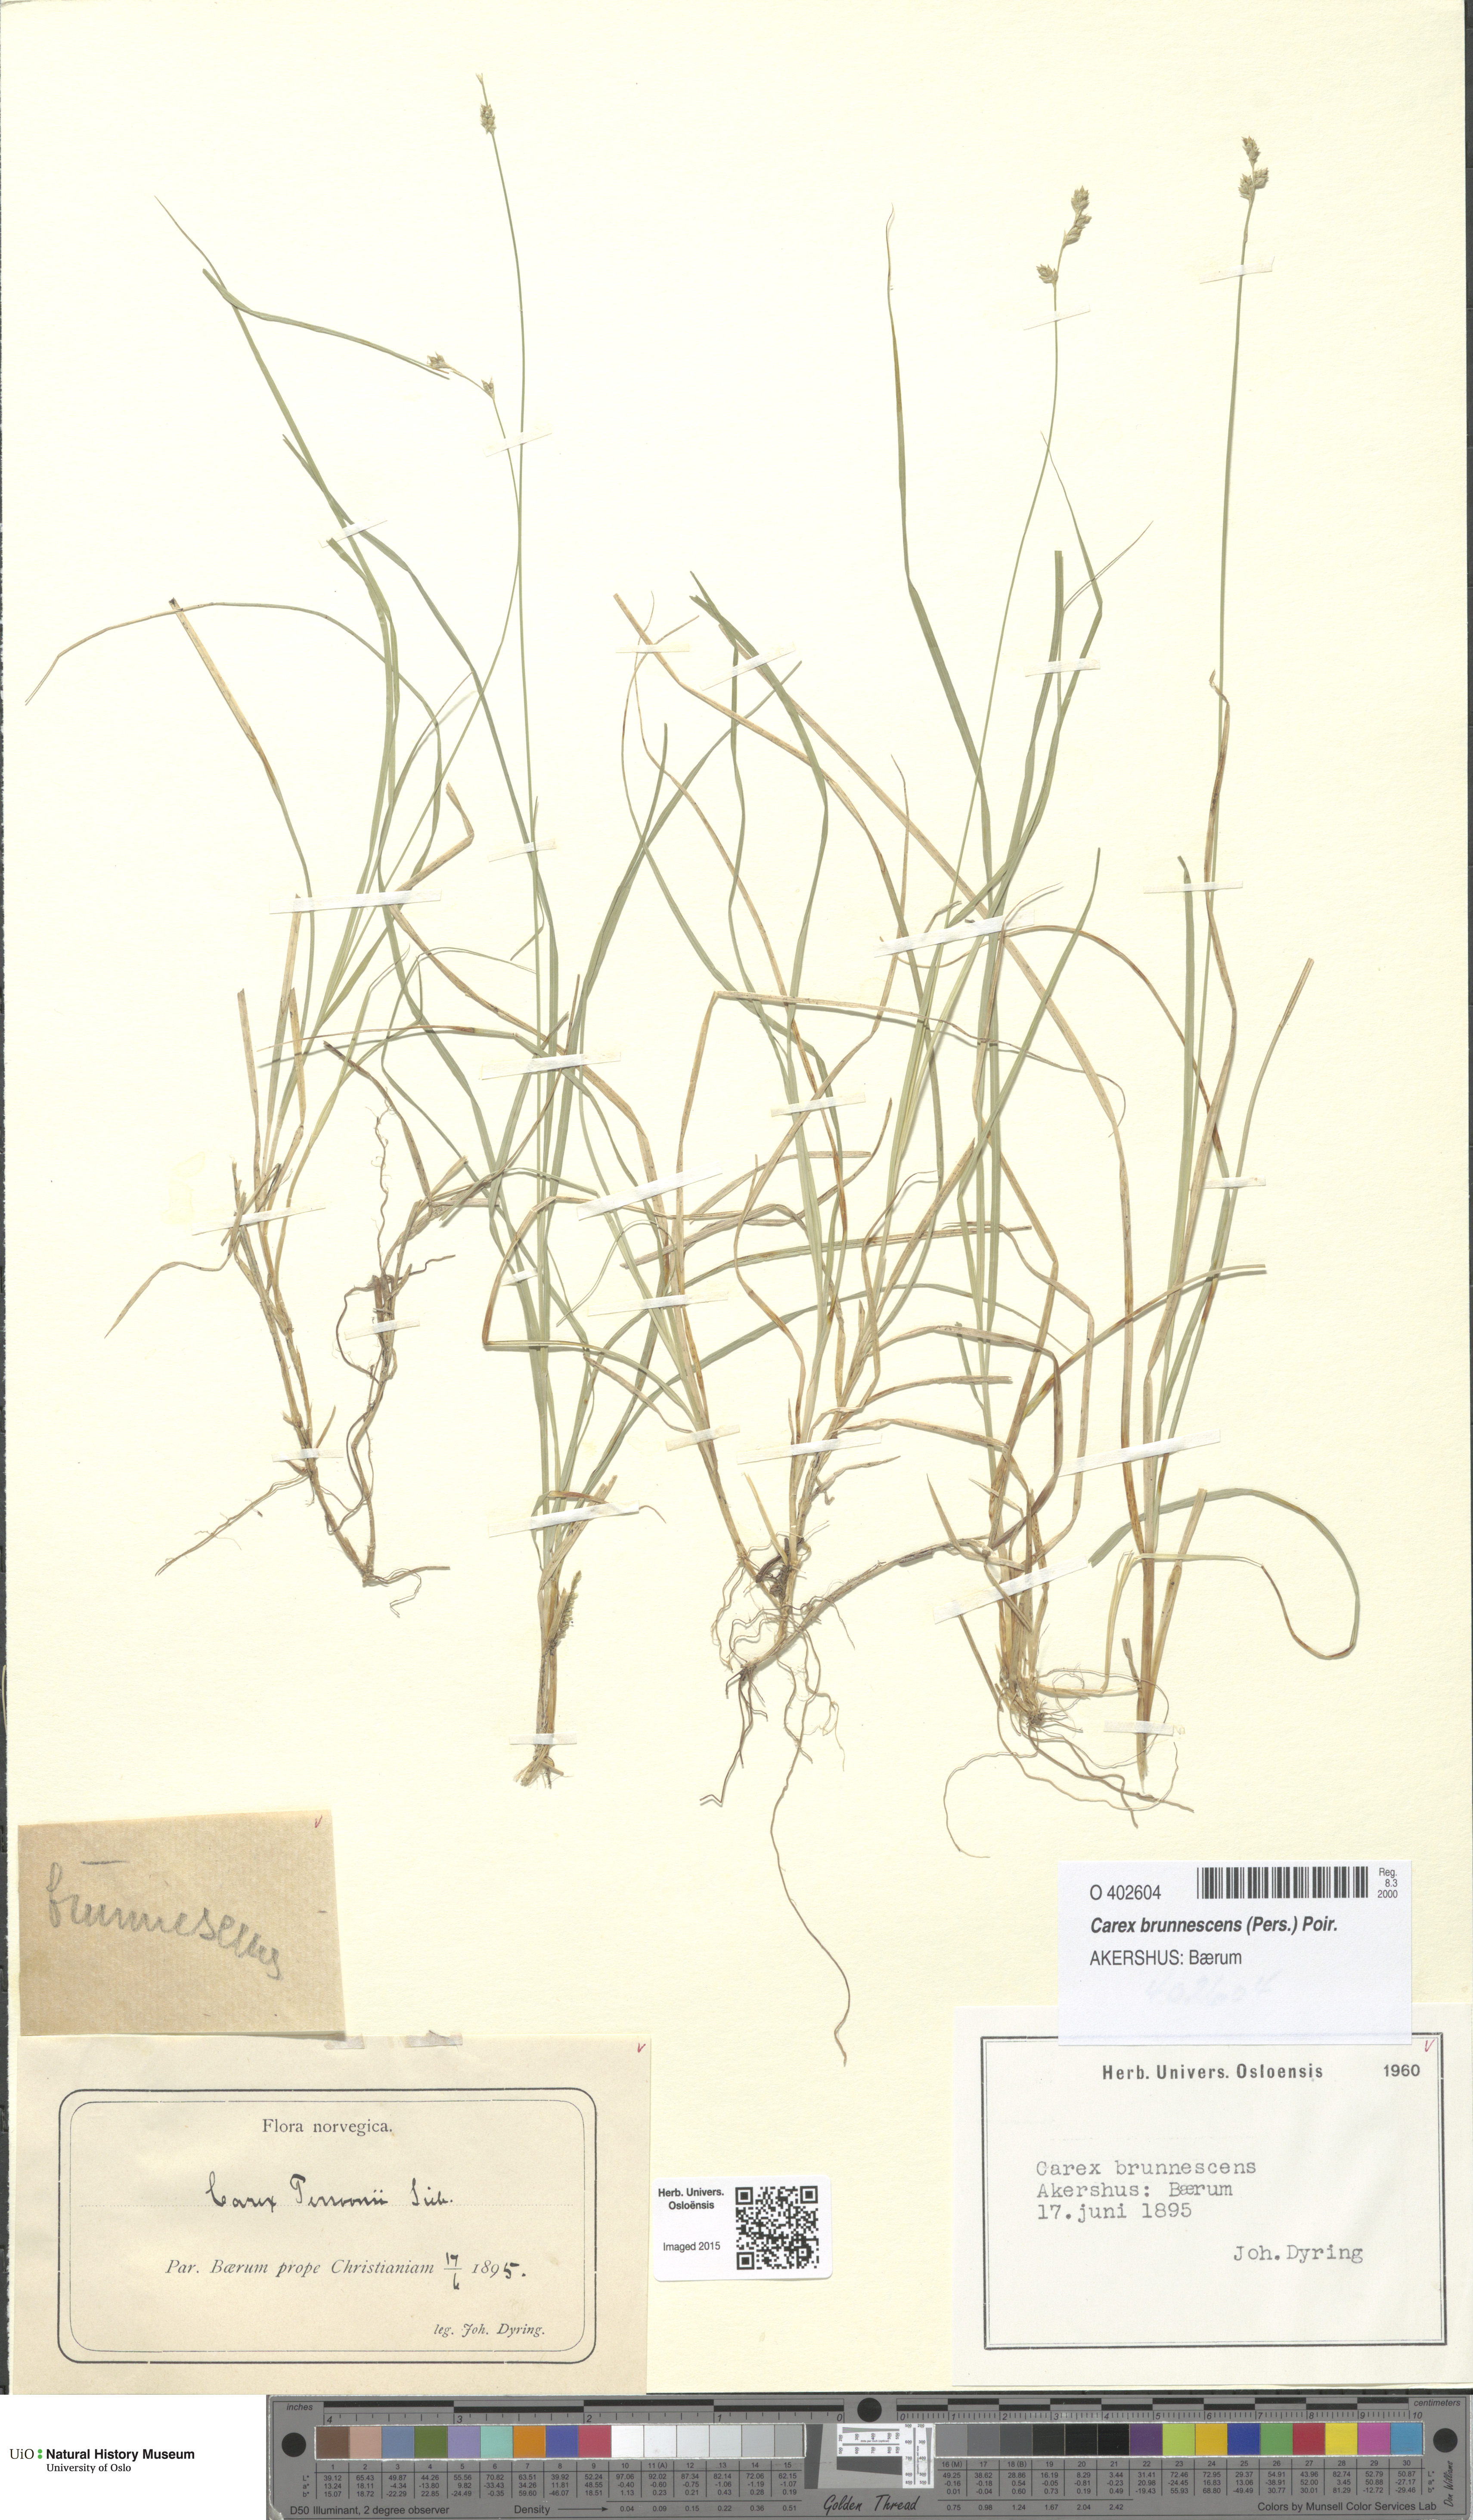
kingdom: Plantae
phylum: Tracheophyta
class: Liliopsida
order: Poales
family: Cyperaceae
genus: Carex
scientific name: Carex canescens
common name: White sedge
